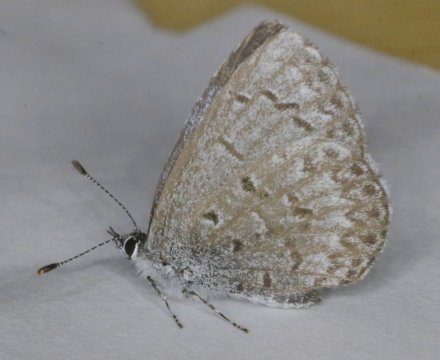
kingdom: Animalia
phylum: Arthropoda
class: Insecta
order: Lepidoptera
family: Lycaenidae
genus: Celastrina
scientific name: Celastrina lucia
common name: Northern Spring Azure
